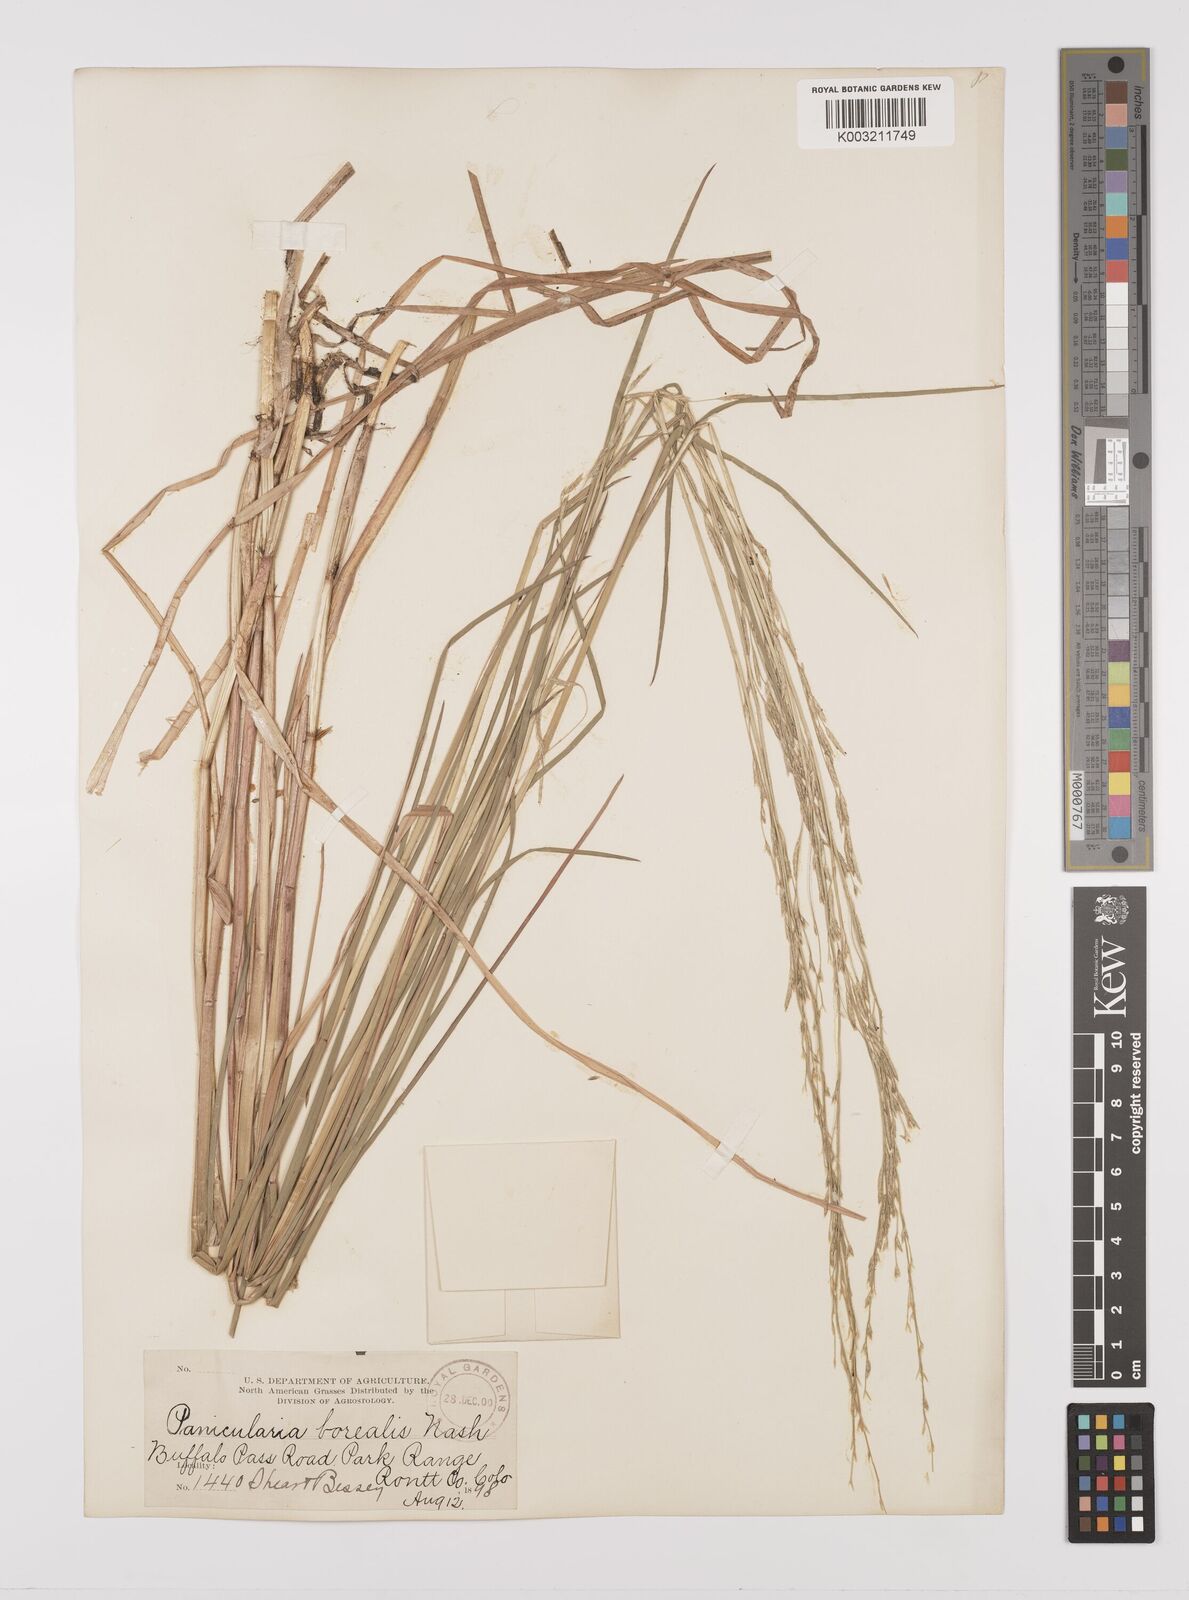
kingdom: Plantae
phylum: Tracheophyta
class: Liliopsida
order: Poales
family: Poaceae
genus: Glyceria
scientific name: Glyceria borealis
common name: Boreal glyceria
